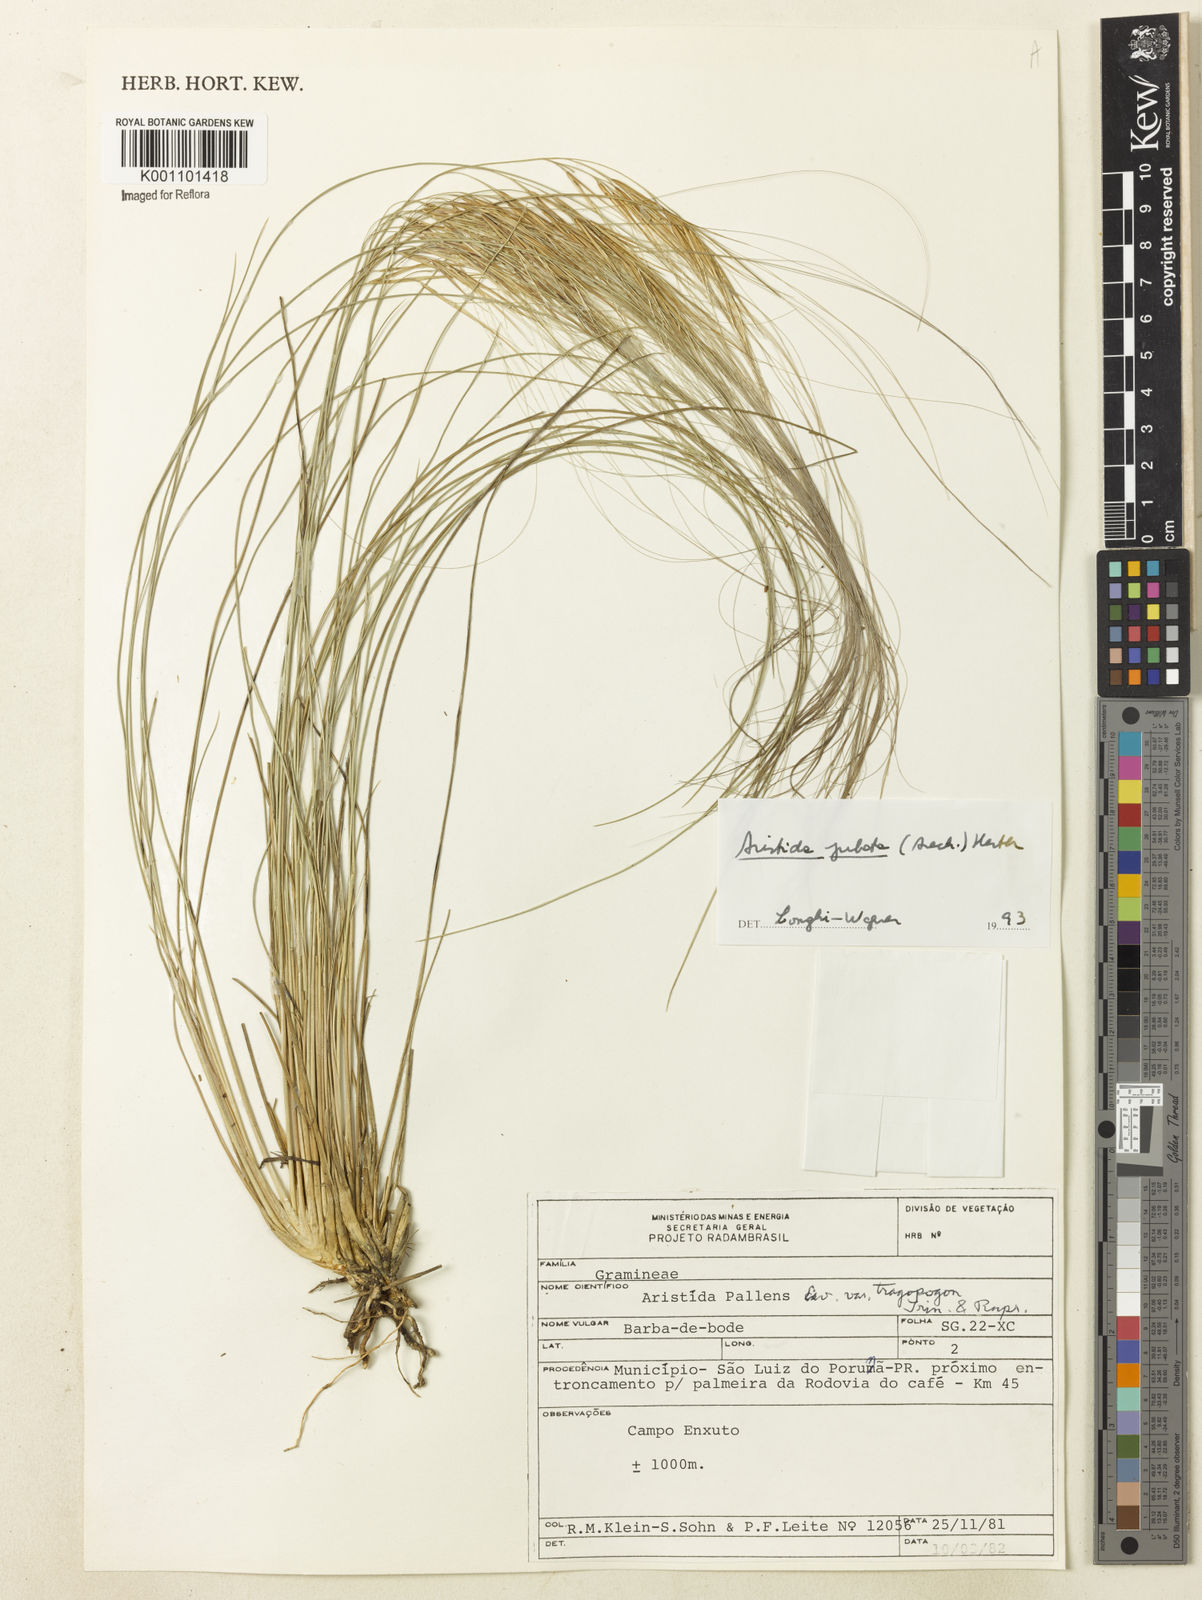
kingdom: Plantae
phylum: Tracheophyta
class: Liliopsida
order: Poales
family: Poaceae
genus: Aristida
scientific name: Aristida jubata
